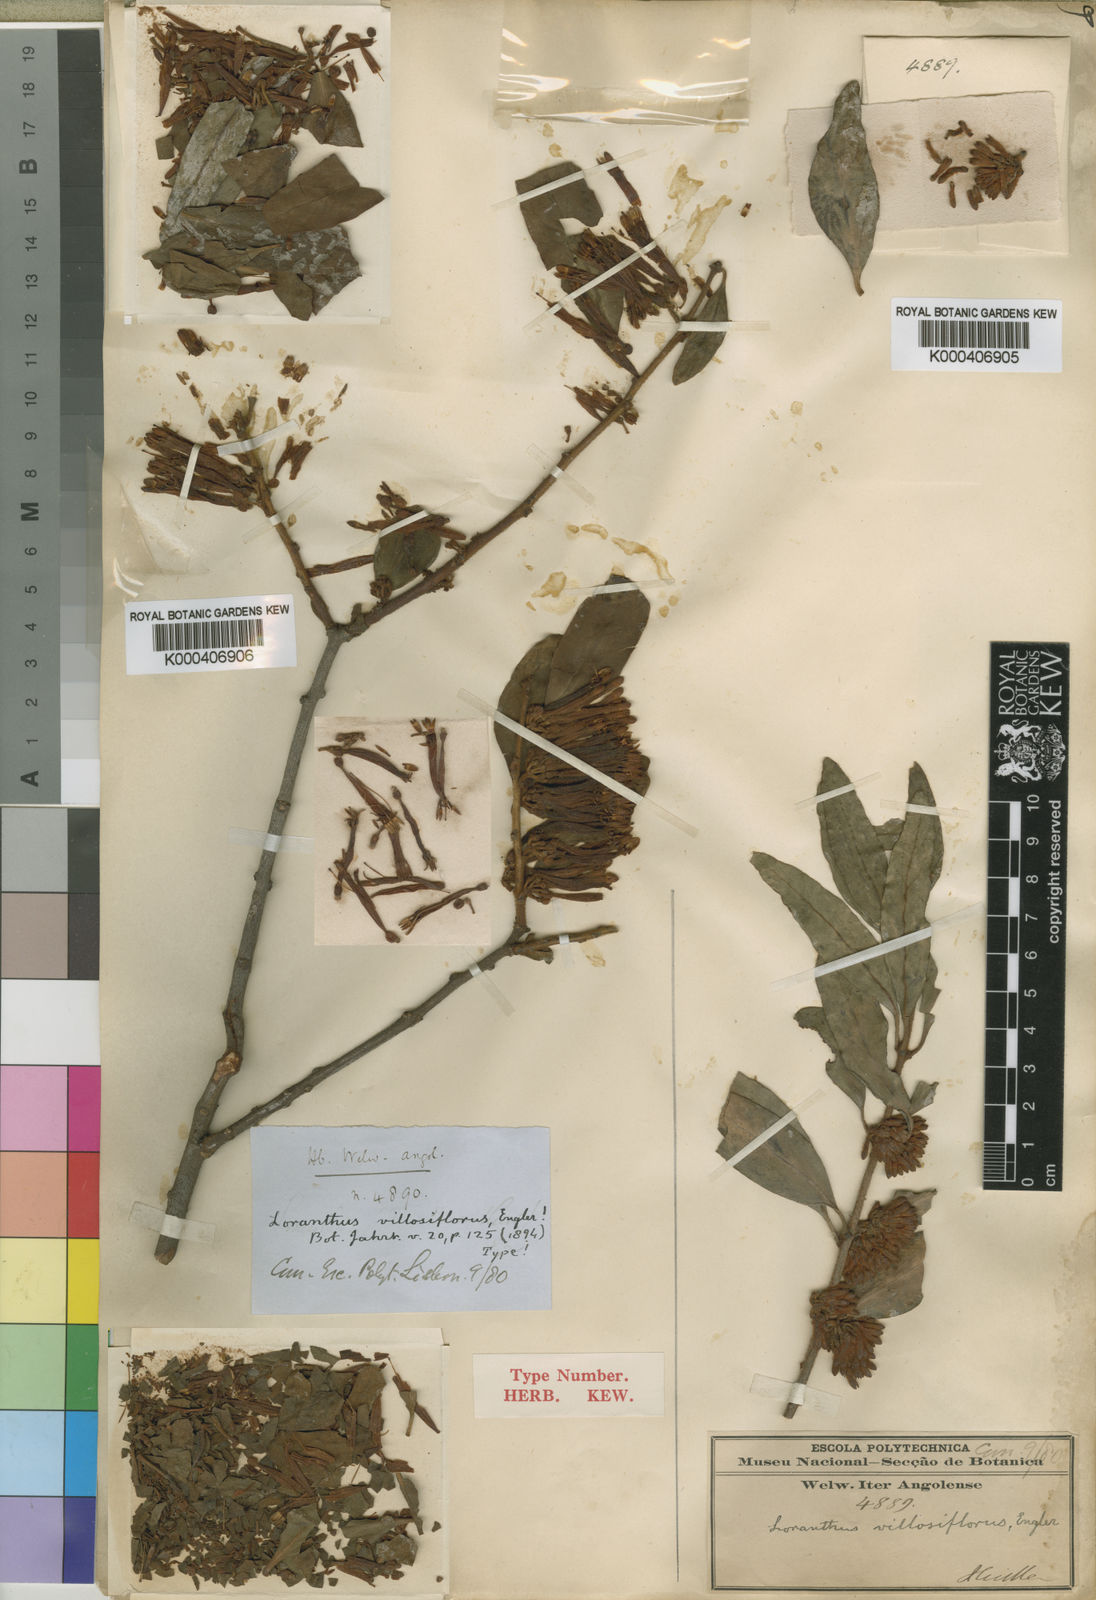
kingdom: Plantae
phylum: Tracheophyta
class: Magnoliopsida
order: Santalales
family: Loranthaceae
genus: Agelanthus
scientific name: Agelanthus villosiflorus
